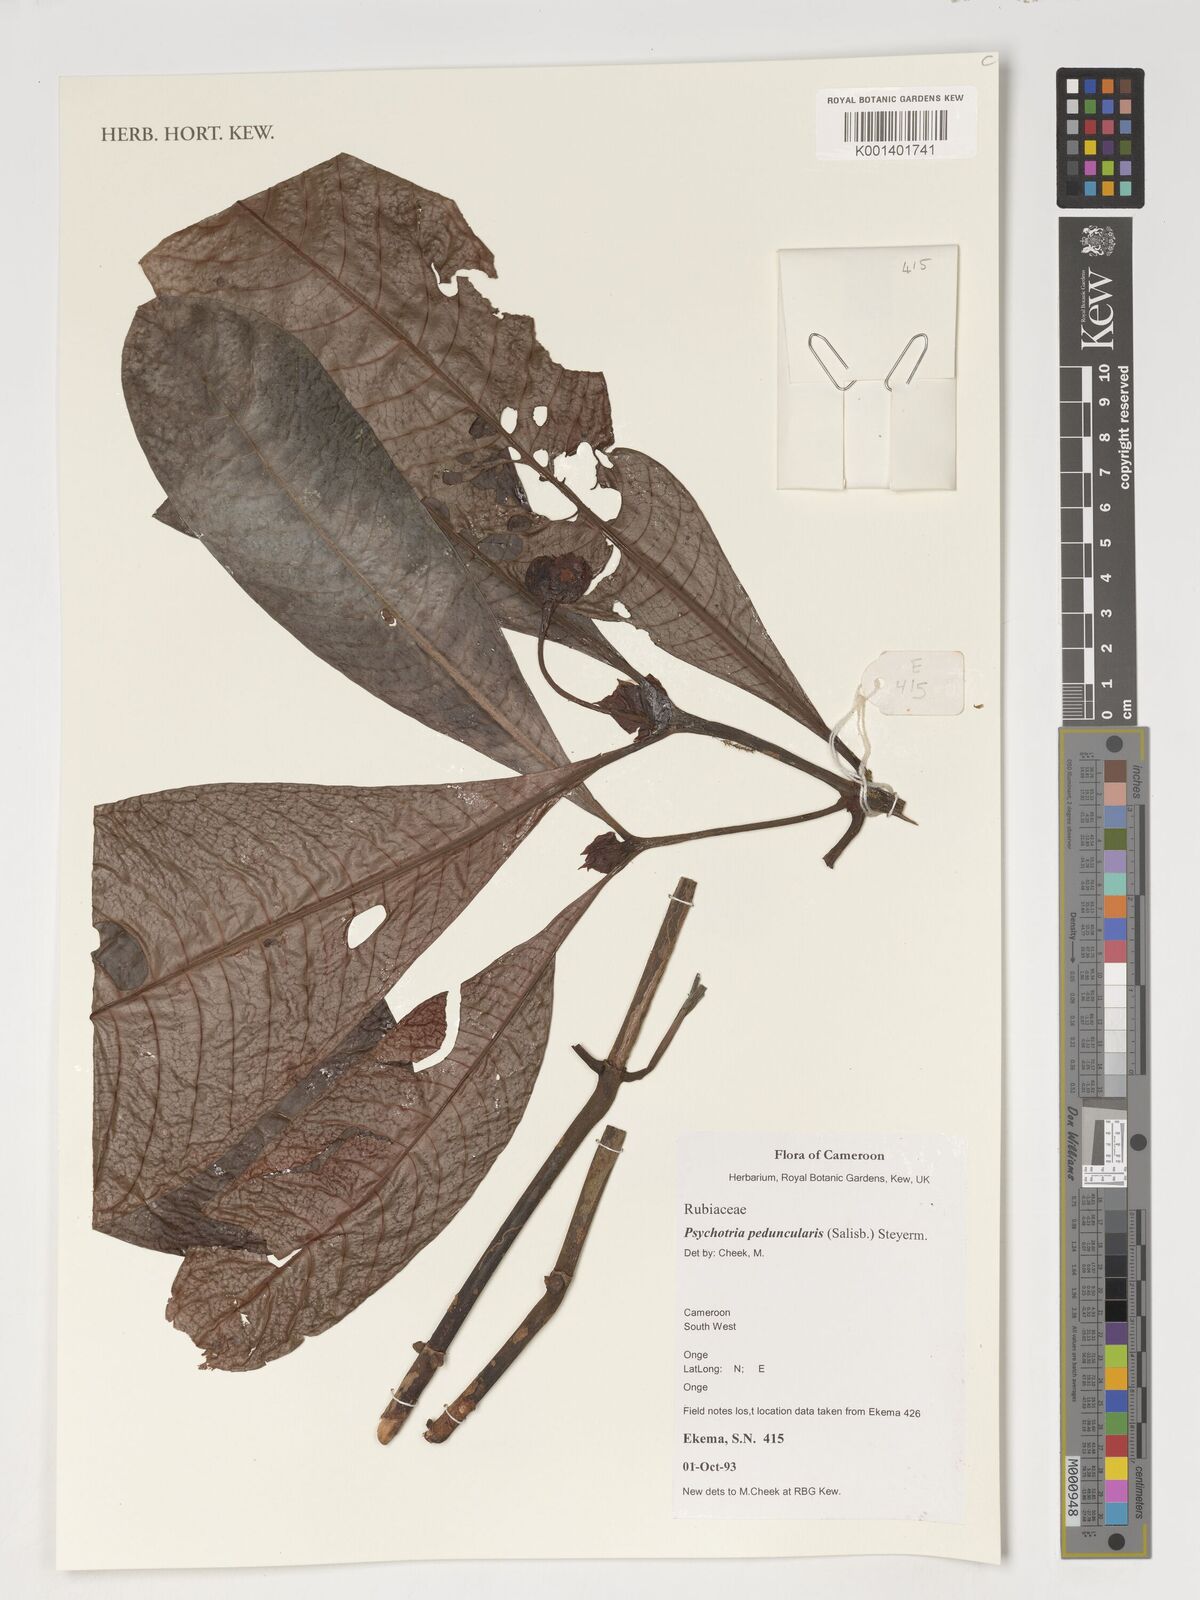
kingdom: Plantae
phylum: Tracheophyta
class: Magnoliopsida
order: Gentianales
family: Rubiaceae
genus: Psychotria
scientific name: Psychotria peduncularis
